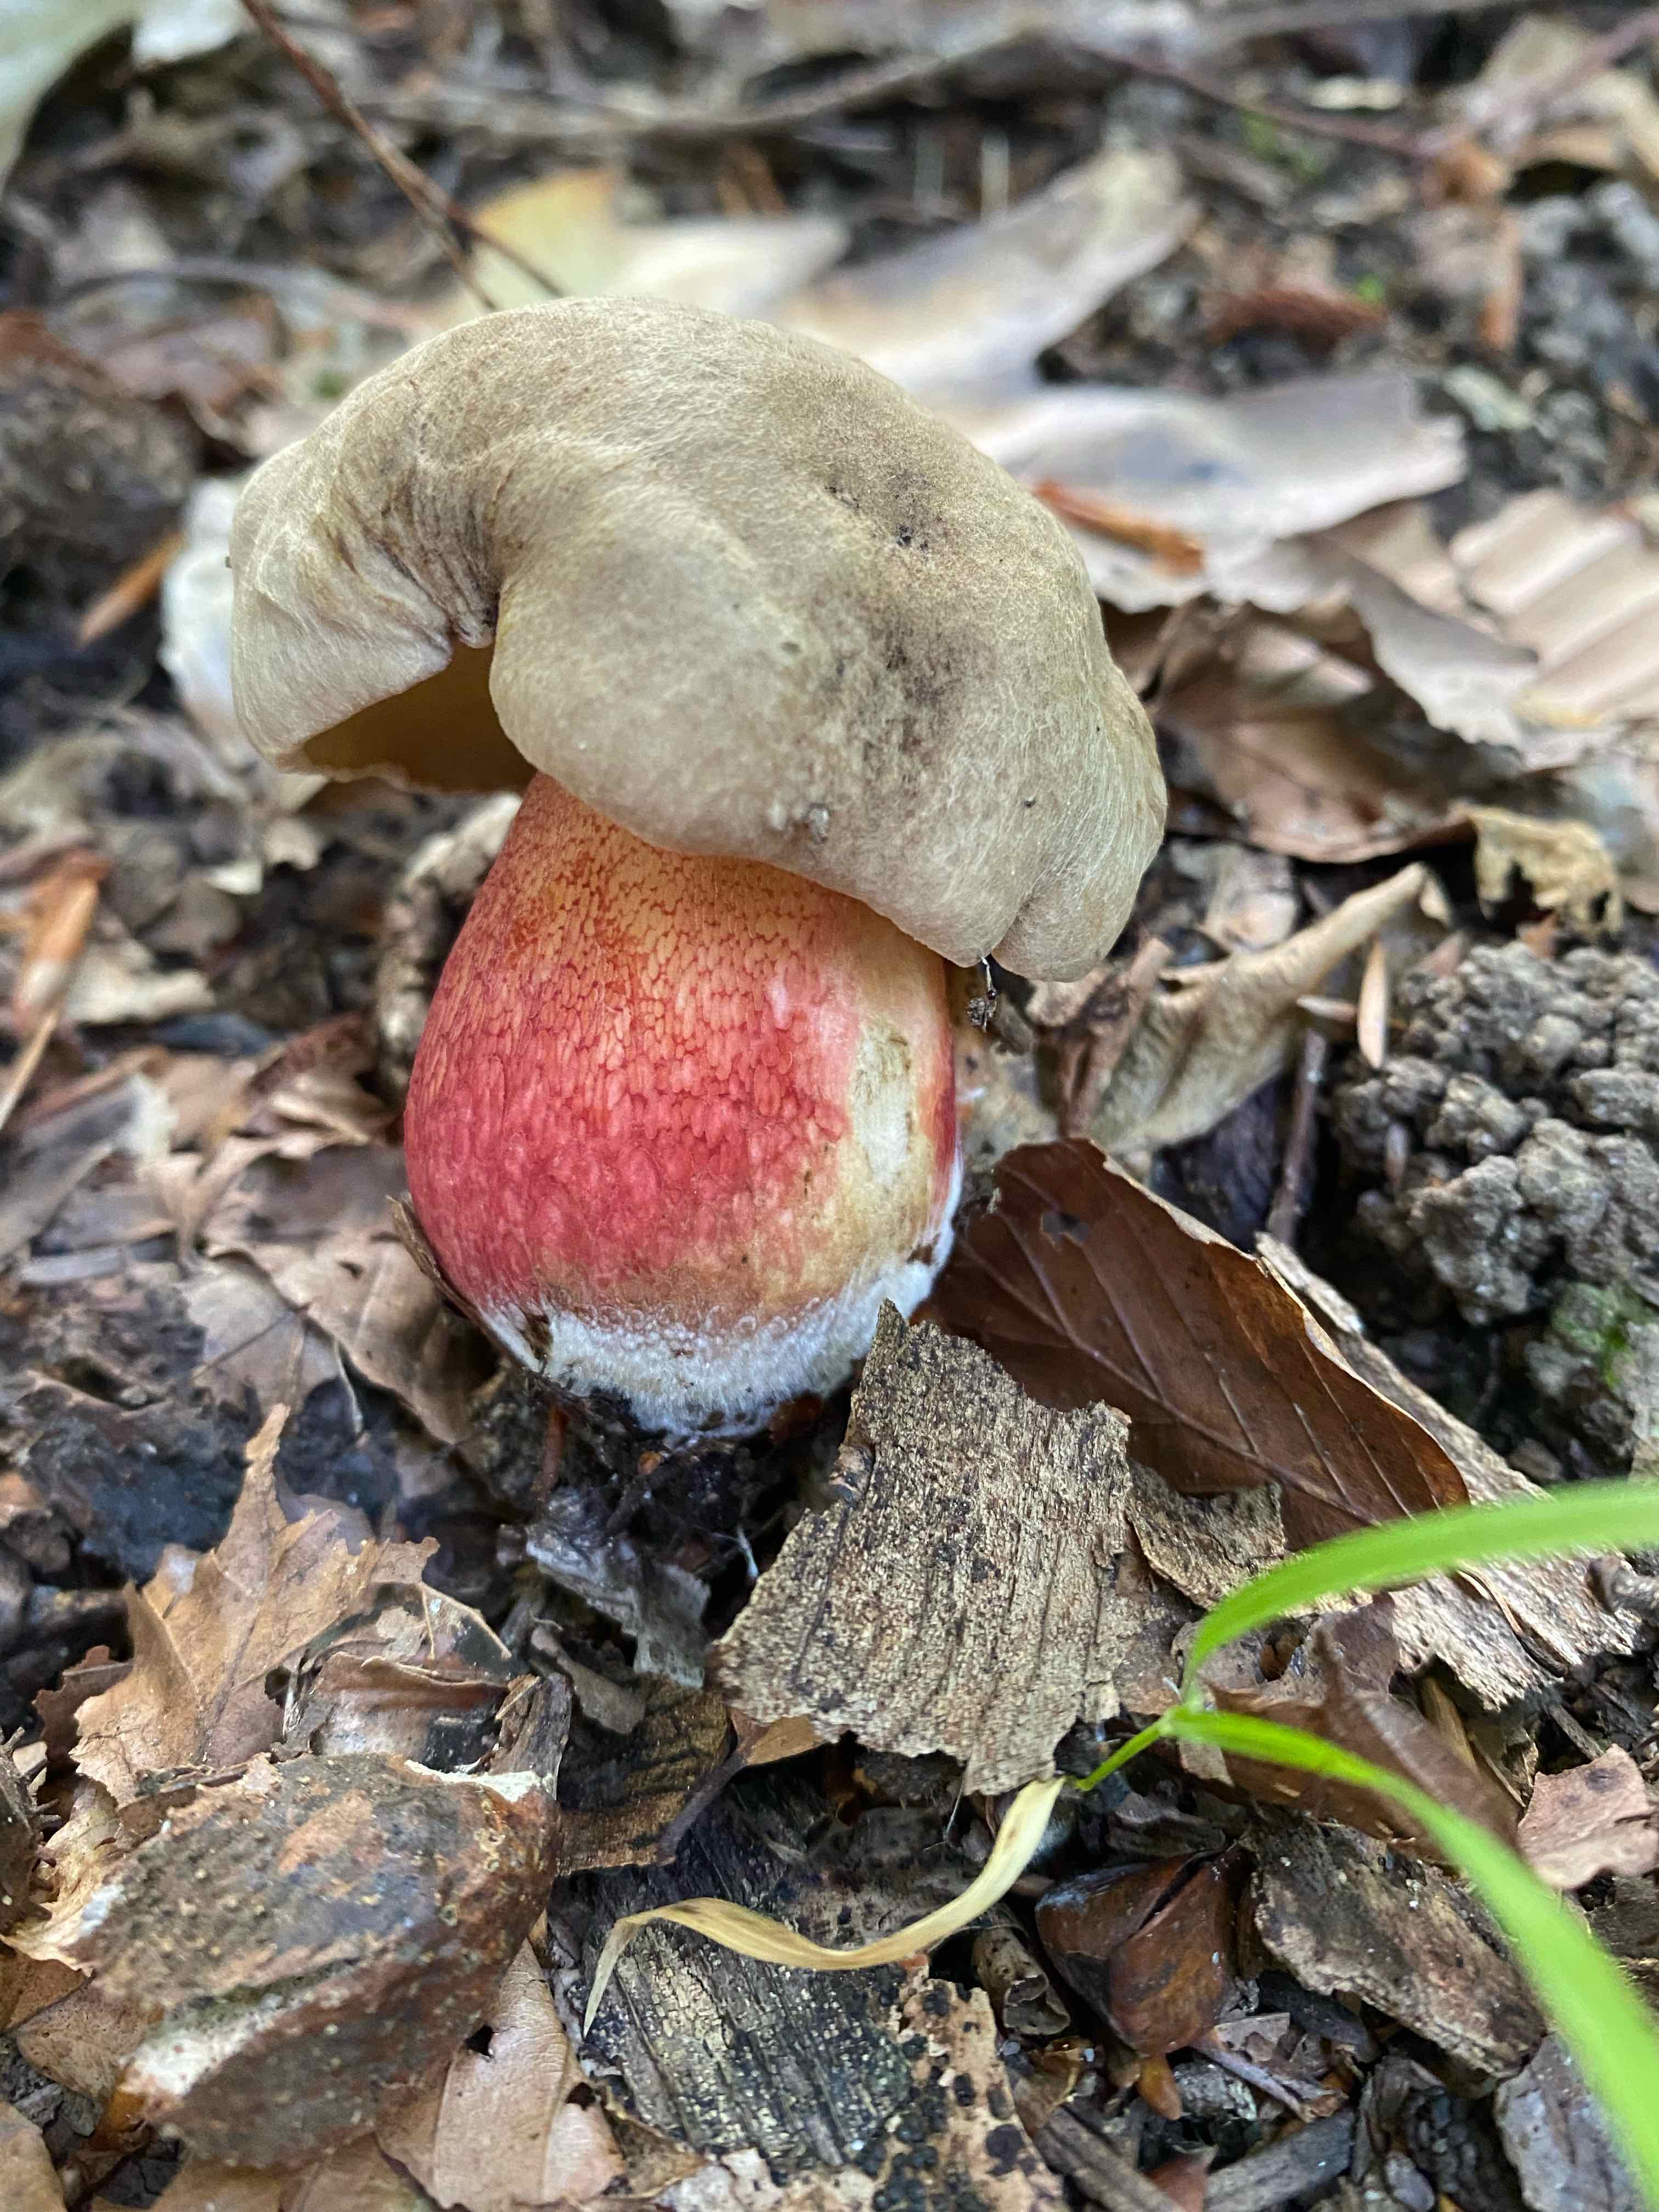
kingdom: Fungi
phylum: Basidiomycota
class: Agaricomycetes
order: Boletales
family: Boletaceae
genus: Caloboletus
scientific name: Caloboletus calopus
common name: skønfodet rørhat
